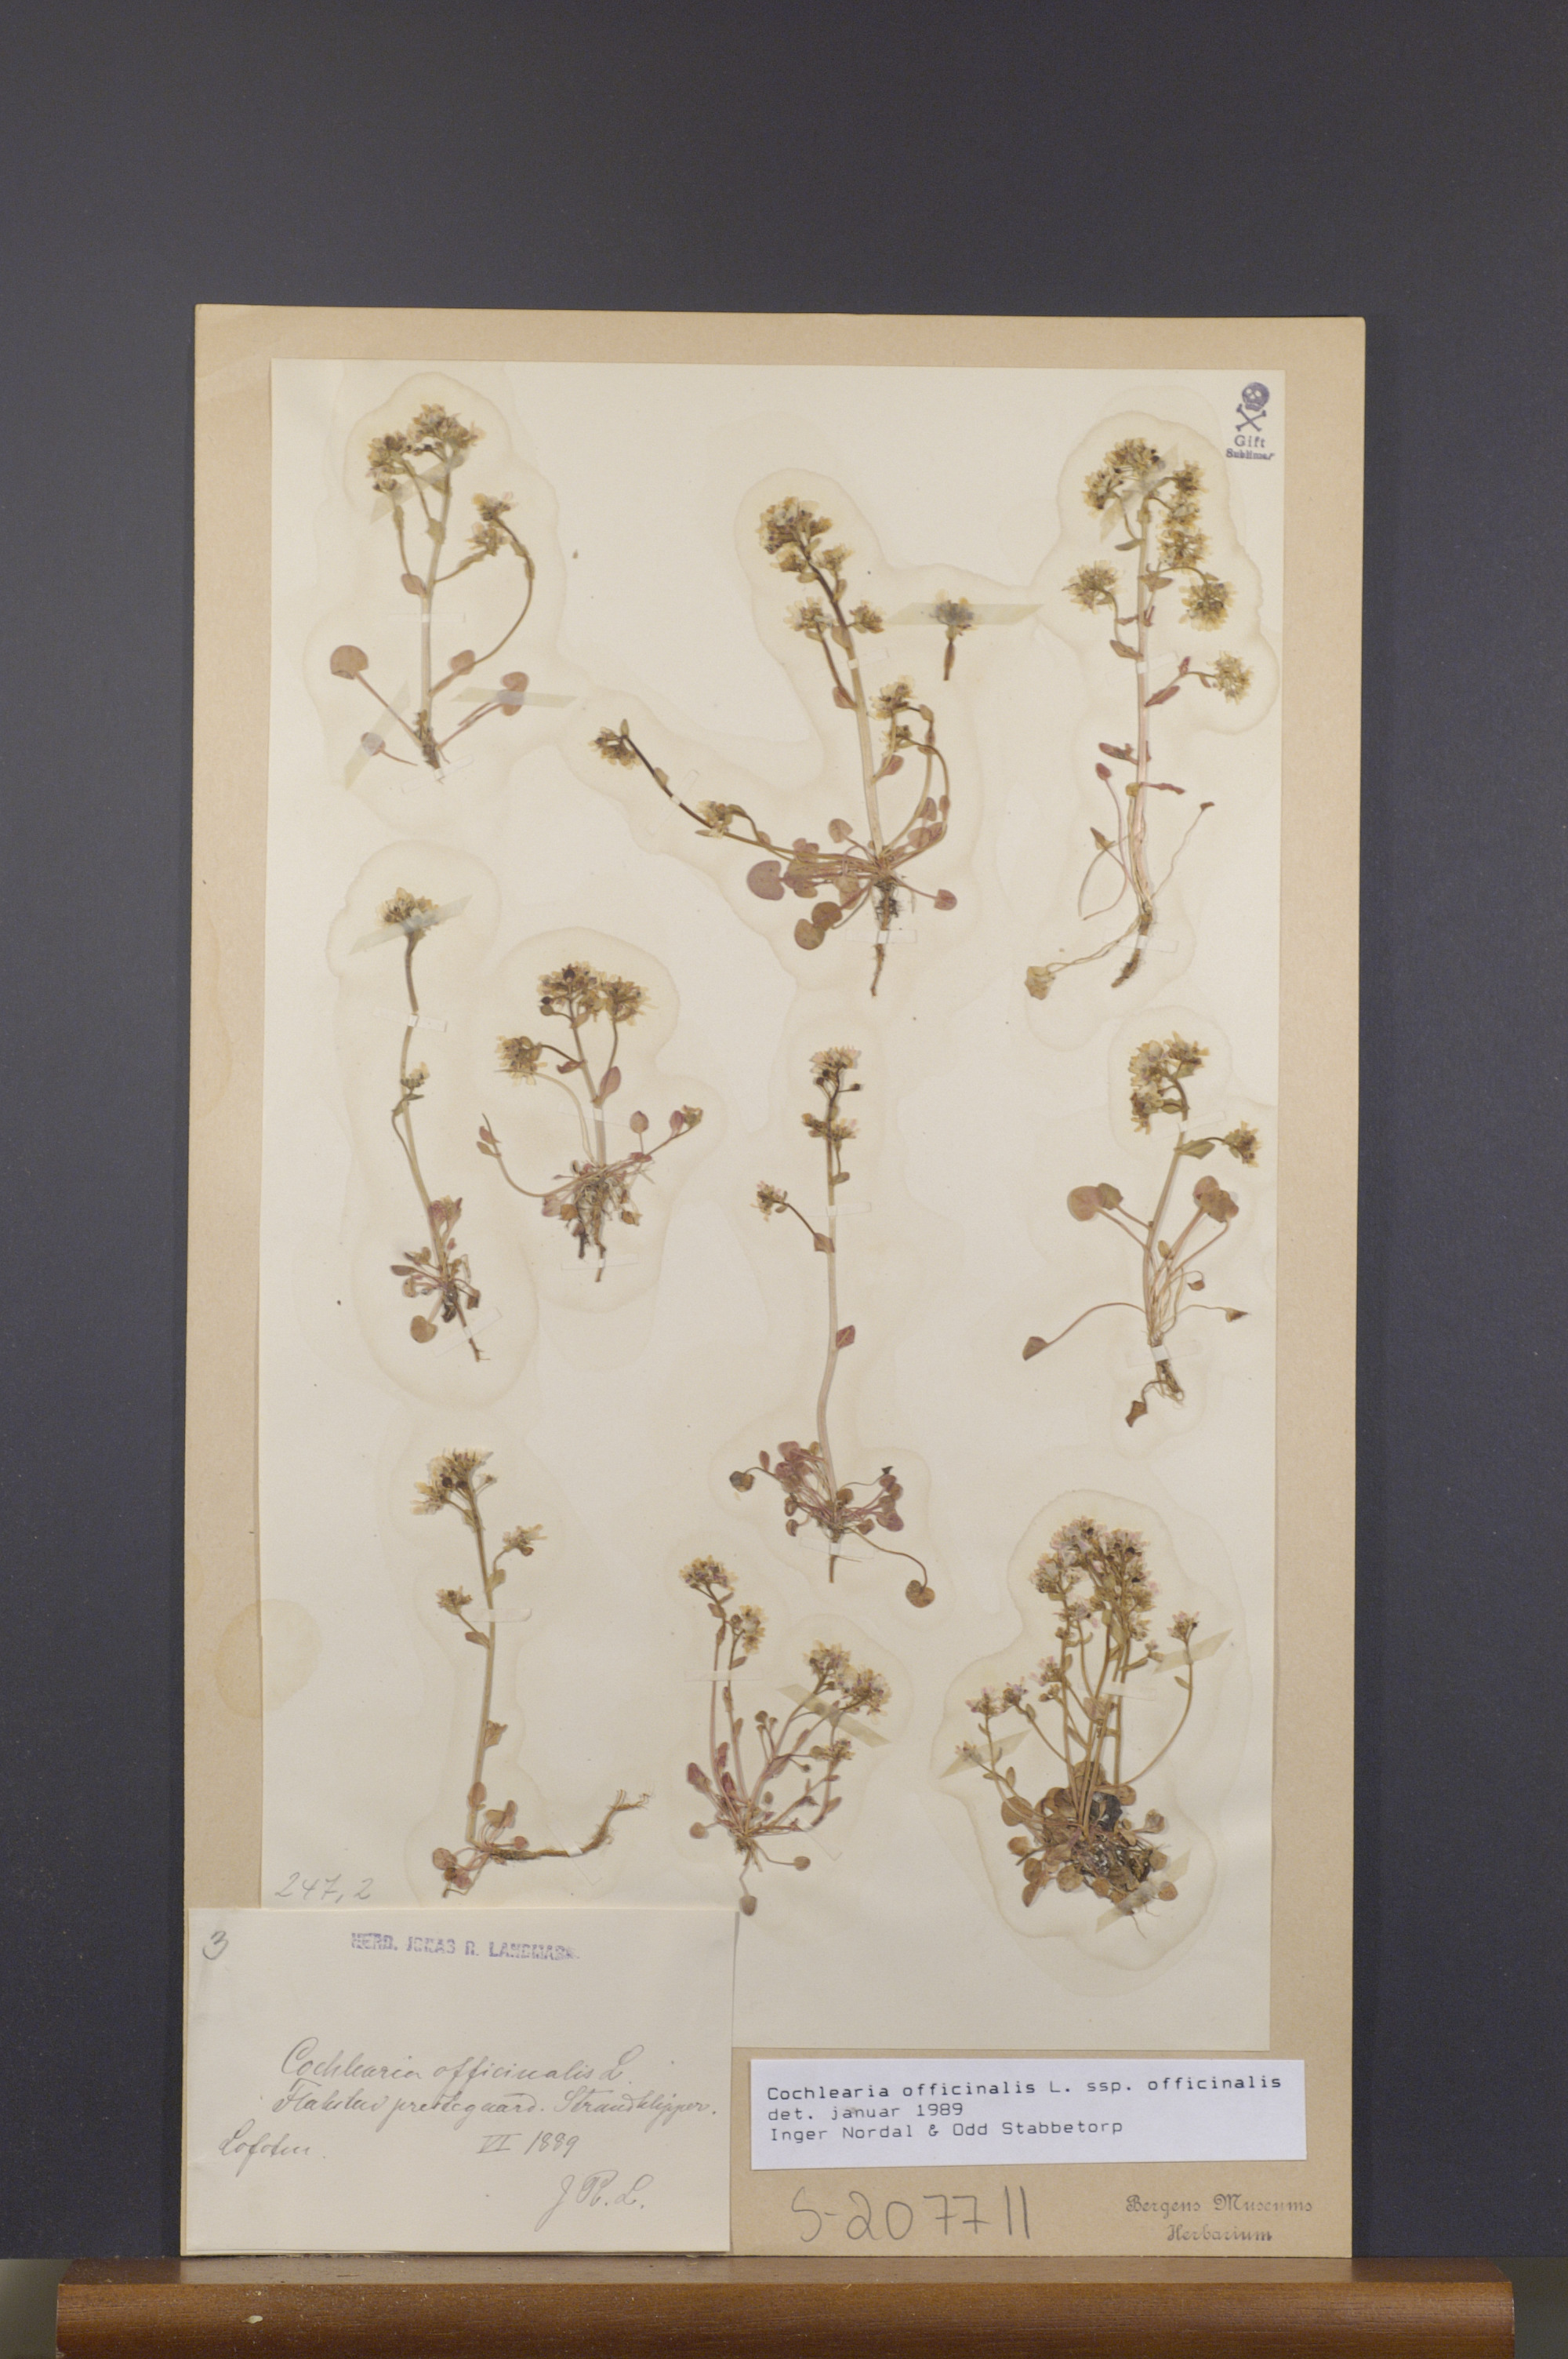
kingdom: Plantae
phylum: Tracheophyta
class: Magnoliopsida
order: Brassicales
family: Brassicaceae
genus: Cochlearia
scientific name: Cochlearia officinalis
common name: Scurvy-grass
